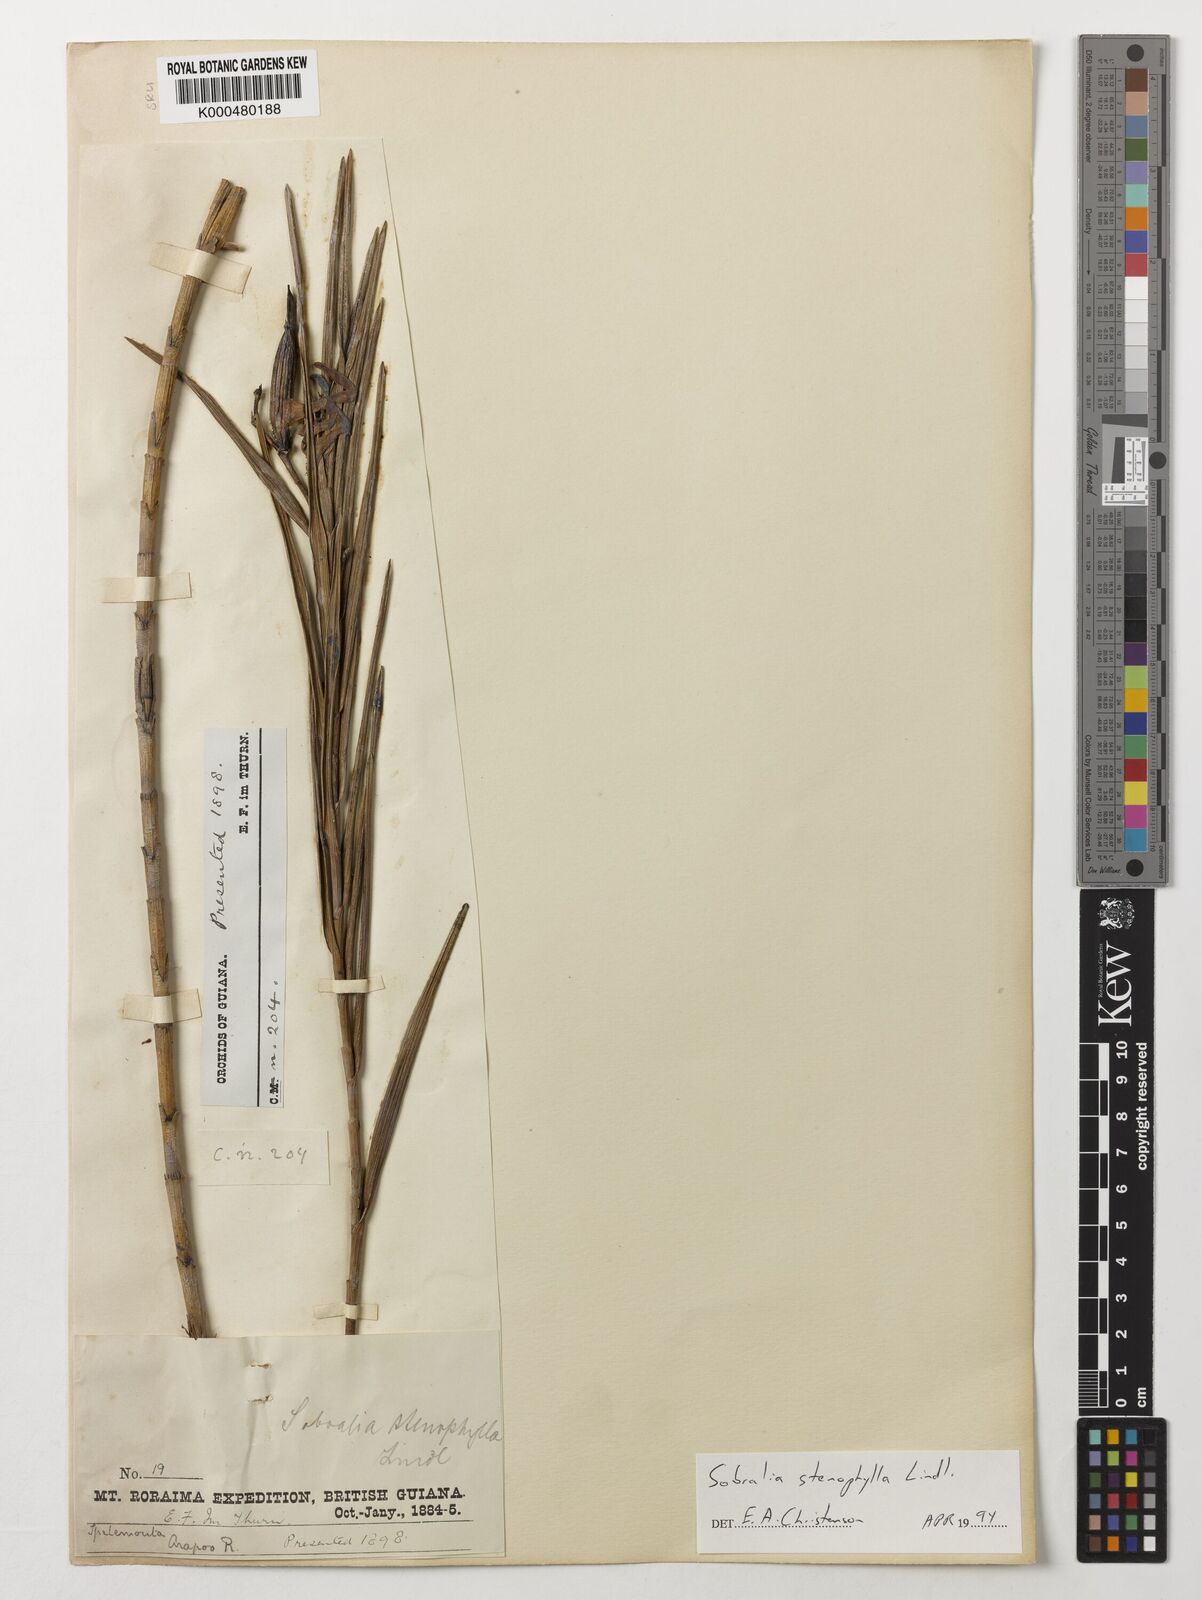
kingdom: Plantae
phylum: Tracheophyta
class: Liliopsida
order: Asparagales
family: Orchidaceae
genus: Sobralia
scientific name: Sobralia stenophylla
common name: Thin leafed sobralia
